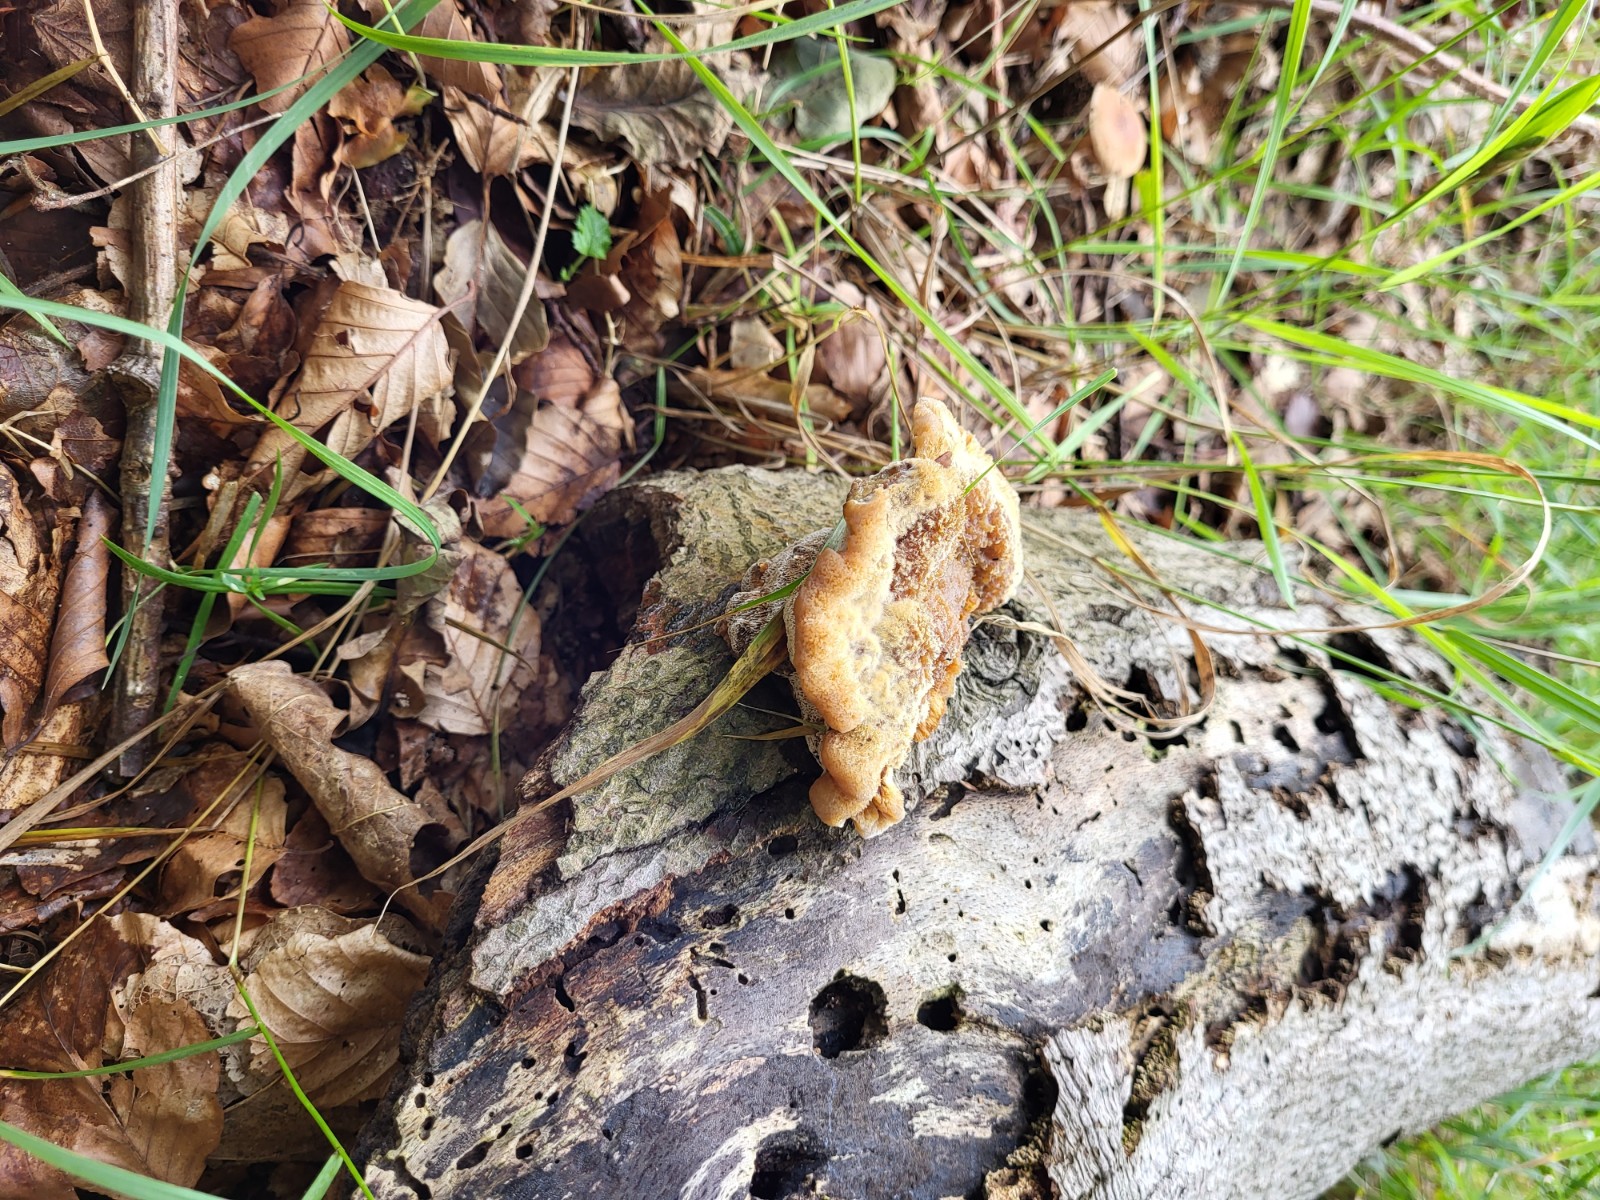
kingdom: Fungi
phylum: Basidiomycota
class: Agaricomycetes
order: Hymenochaetales
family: Hymenochaetaceae
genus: Mensularia
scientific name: Mensularia nodulosa
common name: bøge-spejlporesvamp
